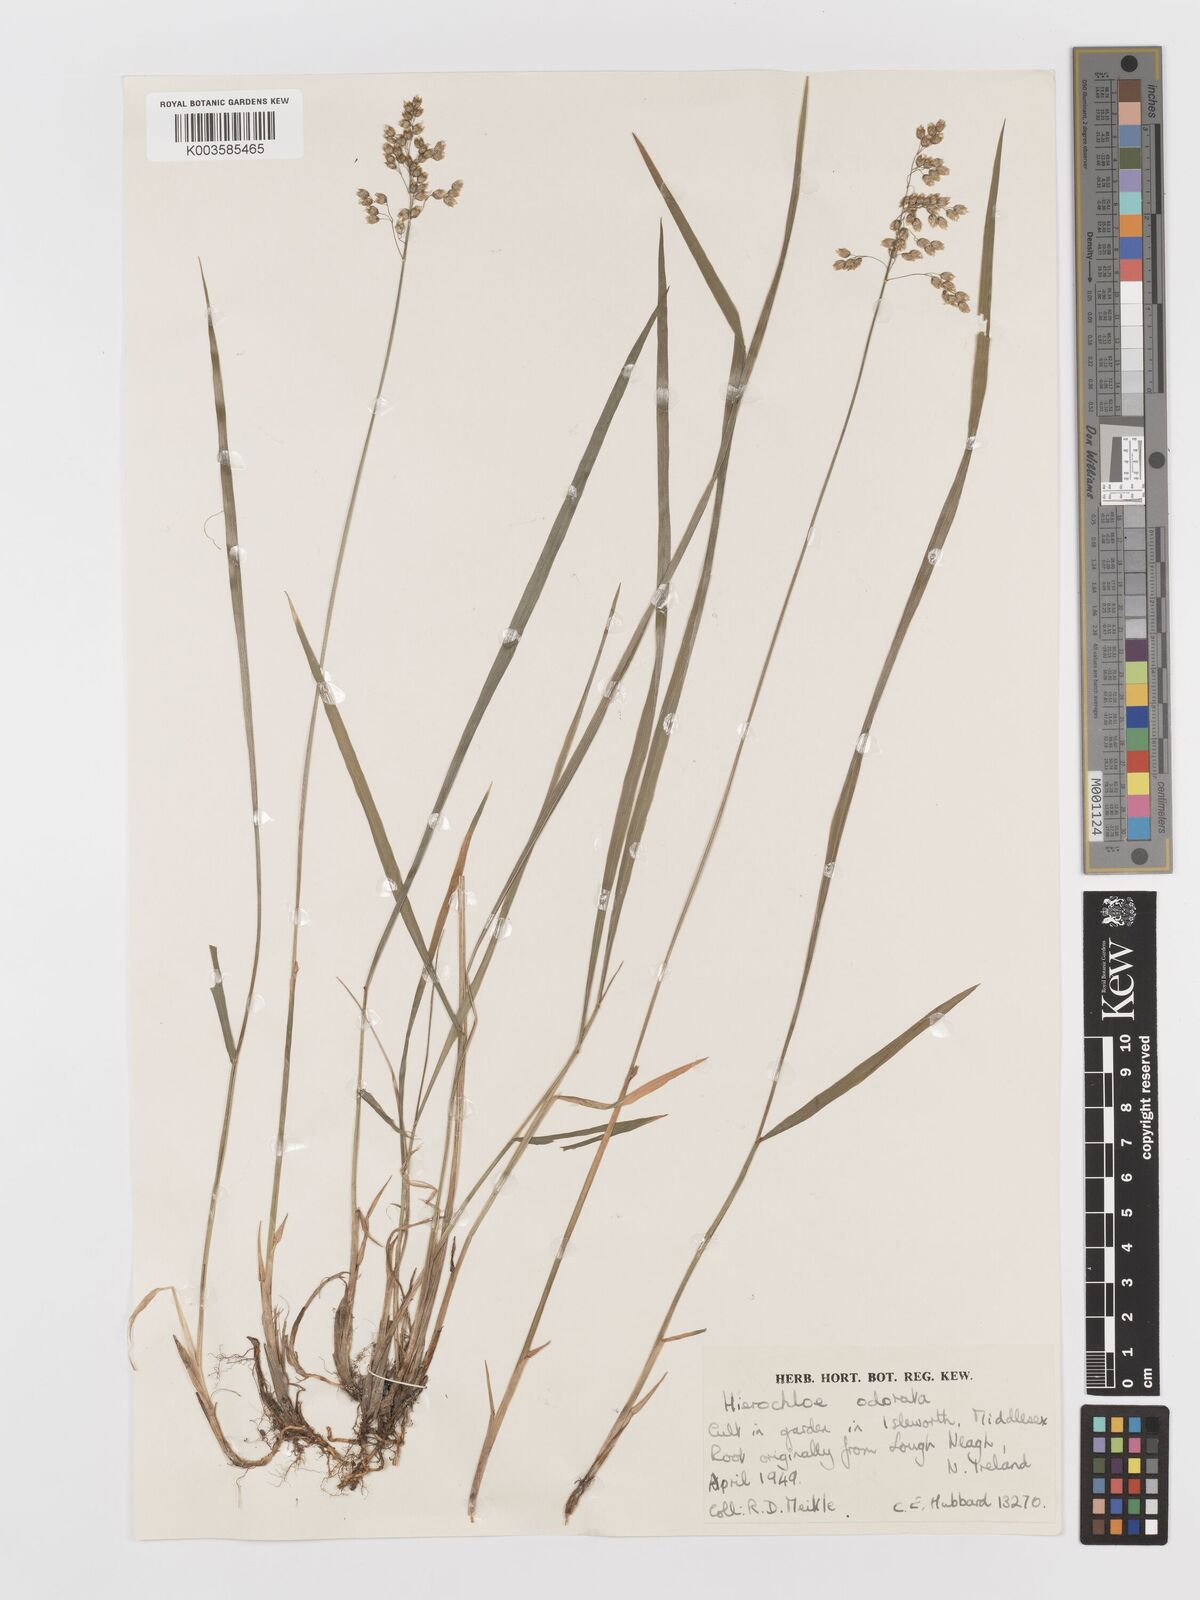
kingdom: Plantae
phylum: Tracheophyta
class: Liliopsida
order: Poales
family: Poaceae
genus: Anthoxanthum
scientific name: Anthoxanthum nitens
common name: Holy grass
